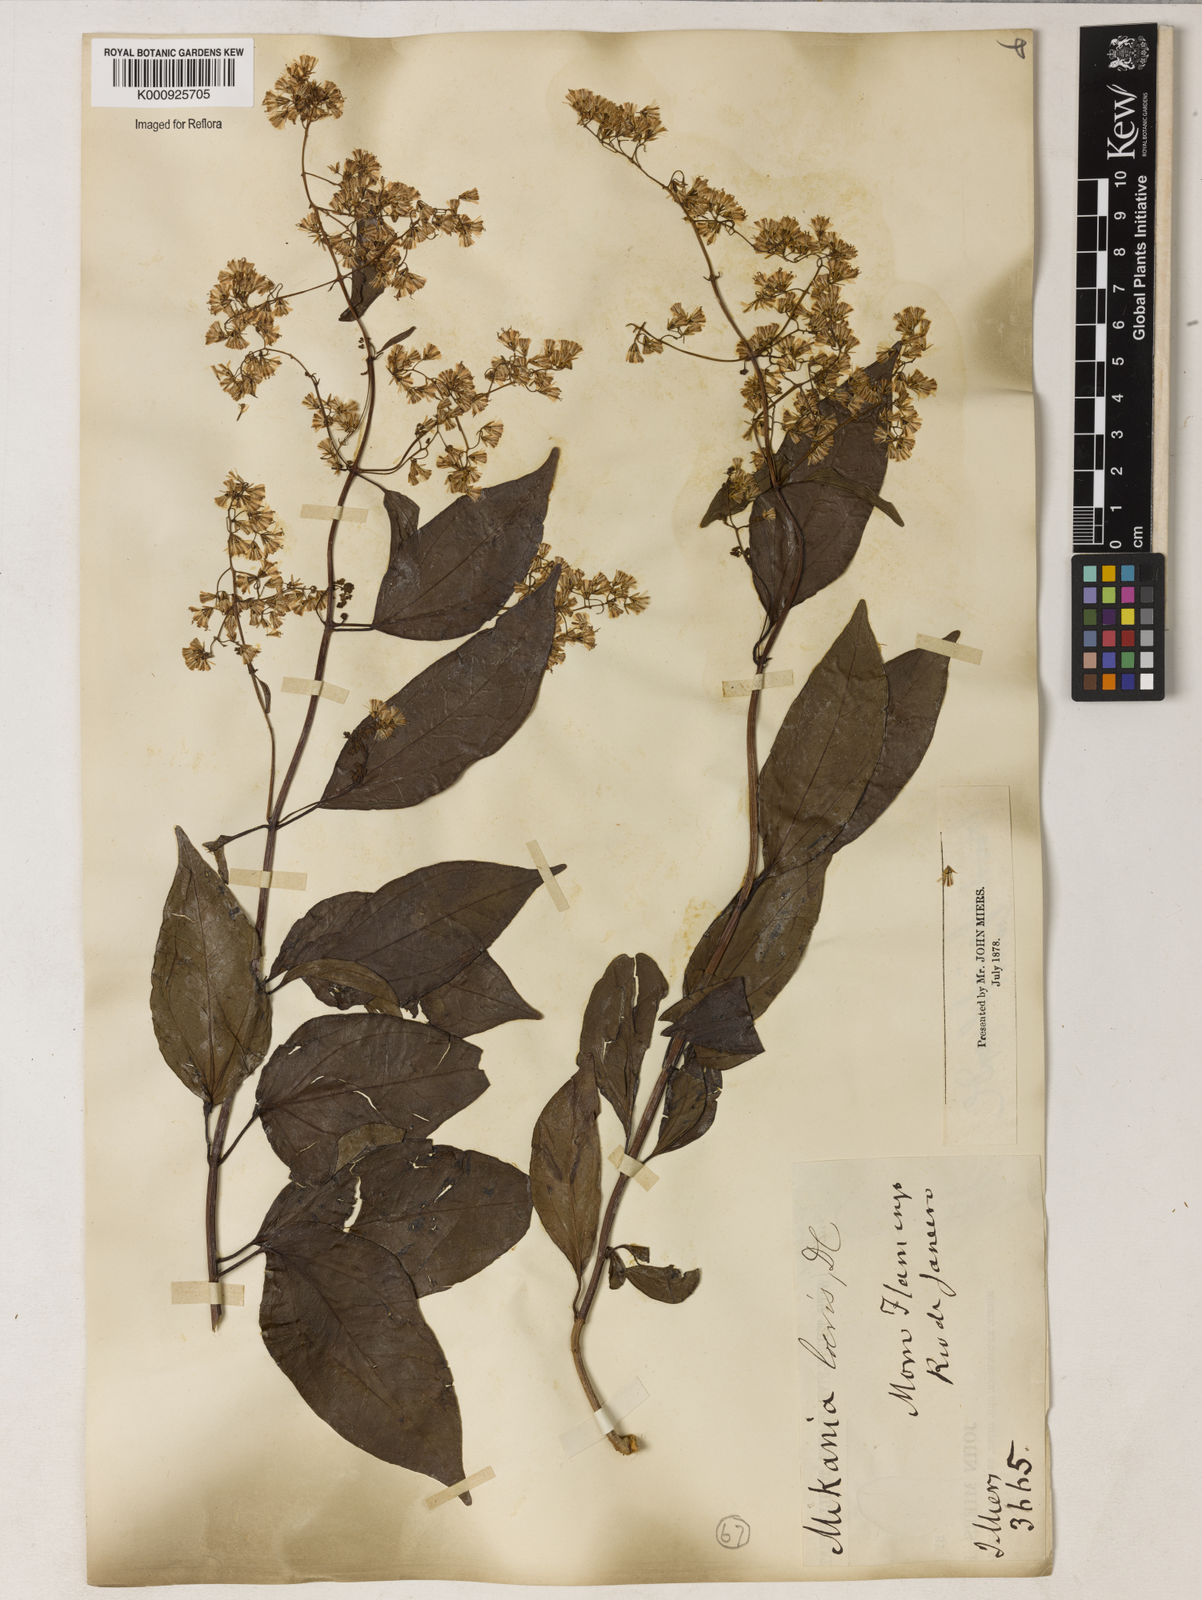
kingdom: Plantae
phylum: Tracheophyta
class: Magnoliopsida
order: Asterales
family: Asteraceae
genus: Mikania
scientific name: Mikania trinervis
